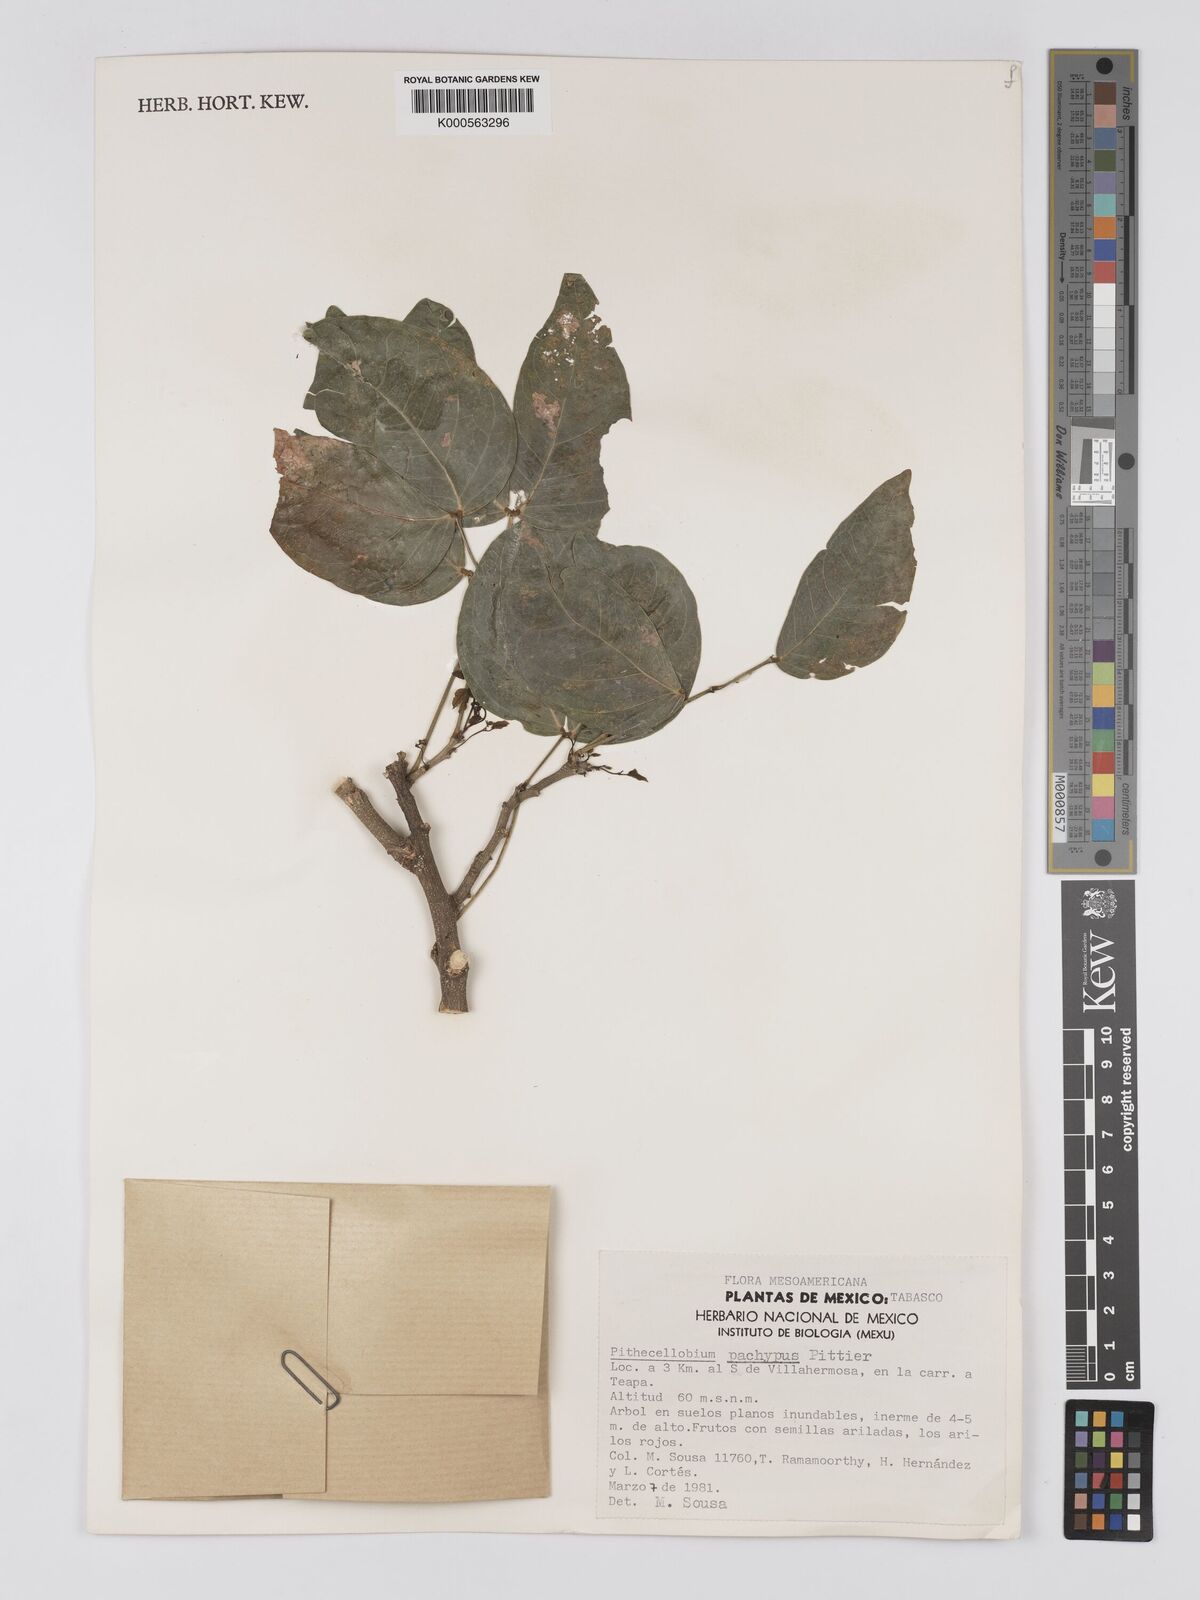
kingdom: Plantae
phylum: Tracheophyta
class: Magnoliopsida
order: Fabales
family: Fabaceae
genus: Pithecellobium
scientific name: Pithecellobium lanceolatum
